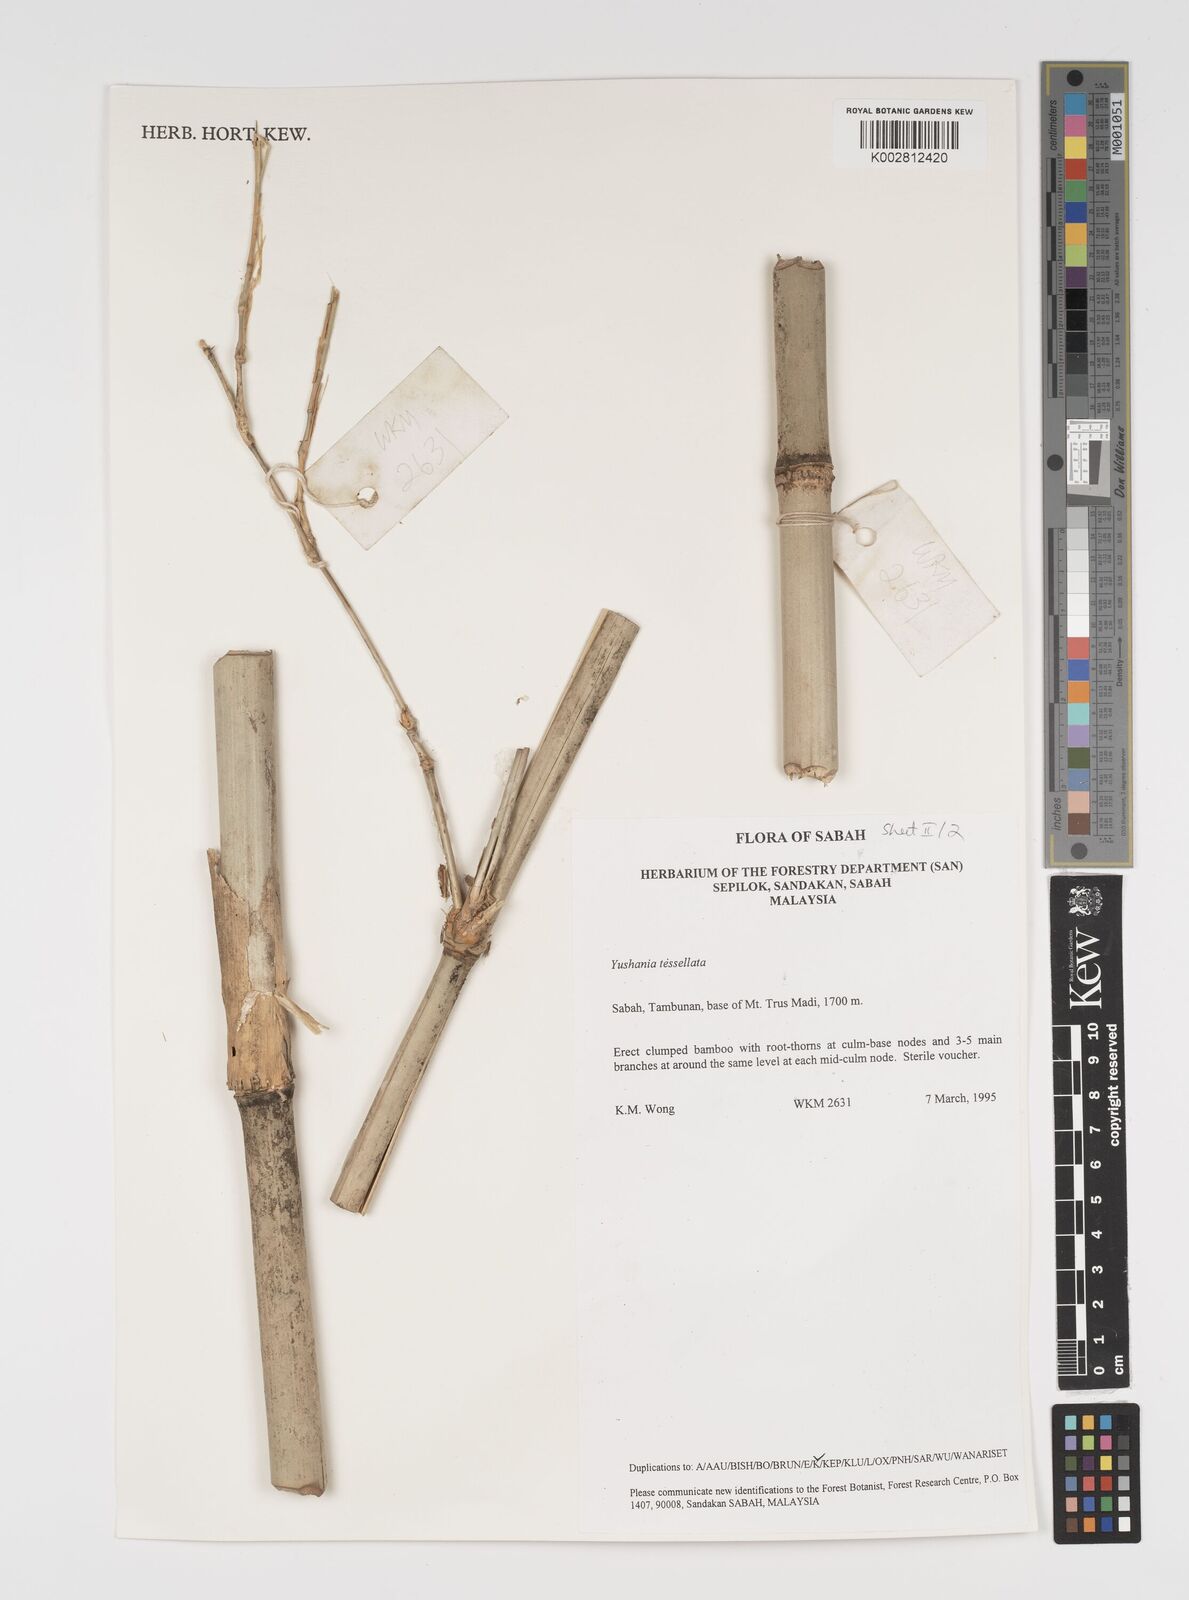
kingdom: Plantae
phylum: Tracheophyta
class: Liliopsida
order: Poales
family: Poaceae
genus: Yushania
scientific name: Yushania tessellata
